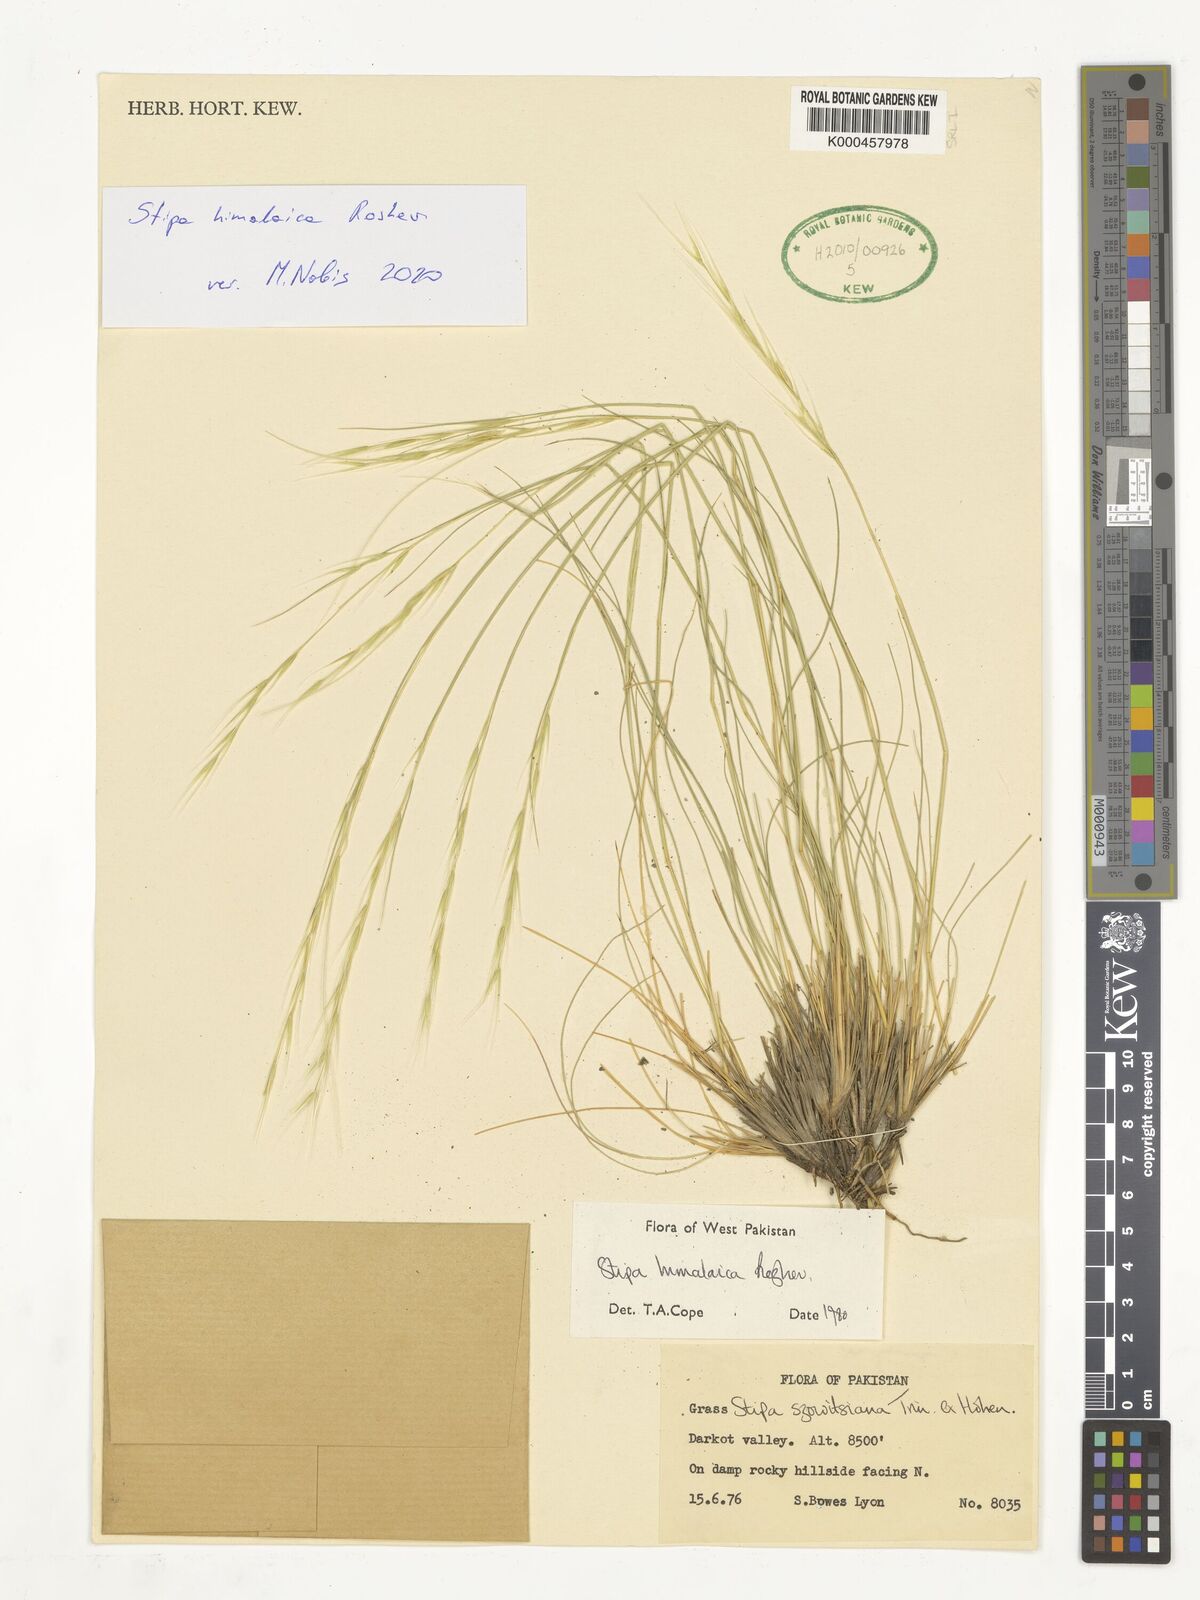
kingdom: Plantae
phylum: Tracheophyta
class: Liliopsida
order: Poales
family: Poaceae
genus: Stipa
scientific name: Stipa himalaica
